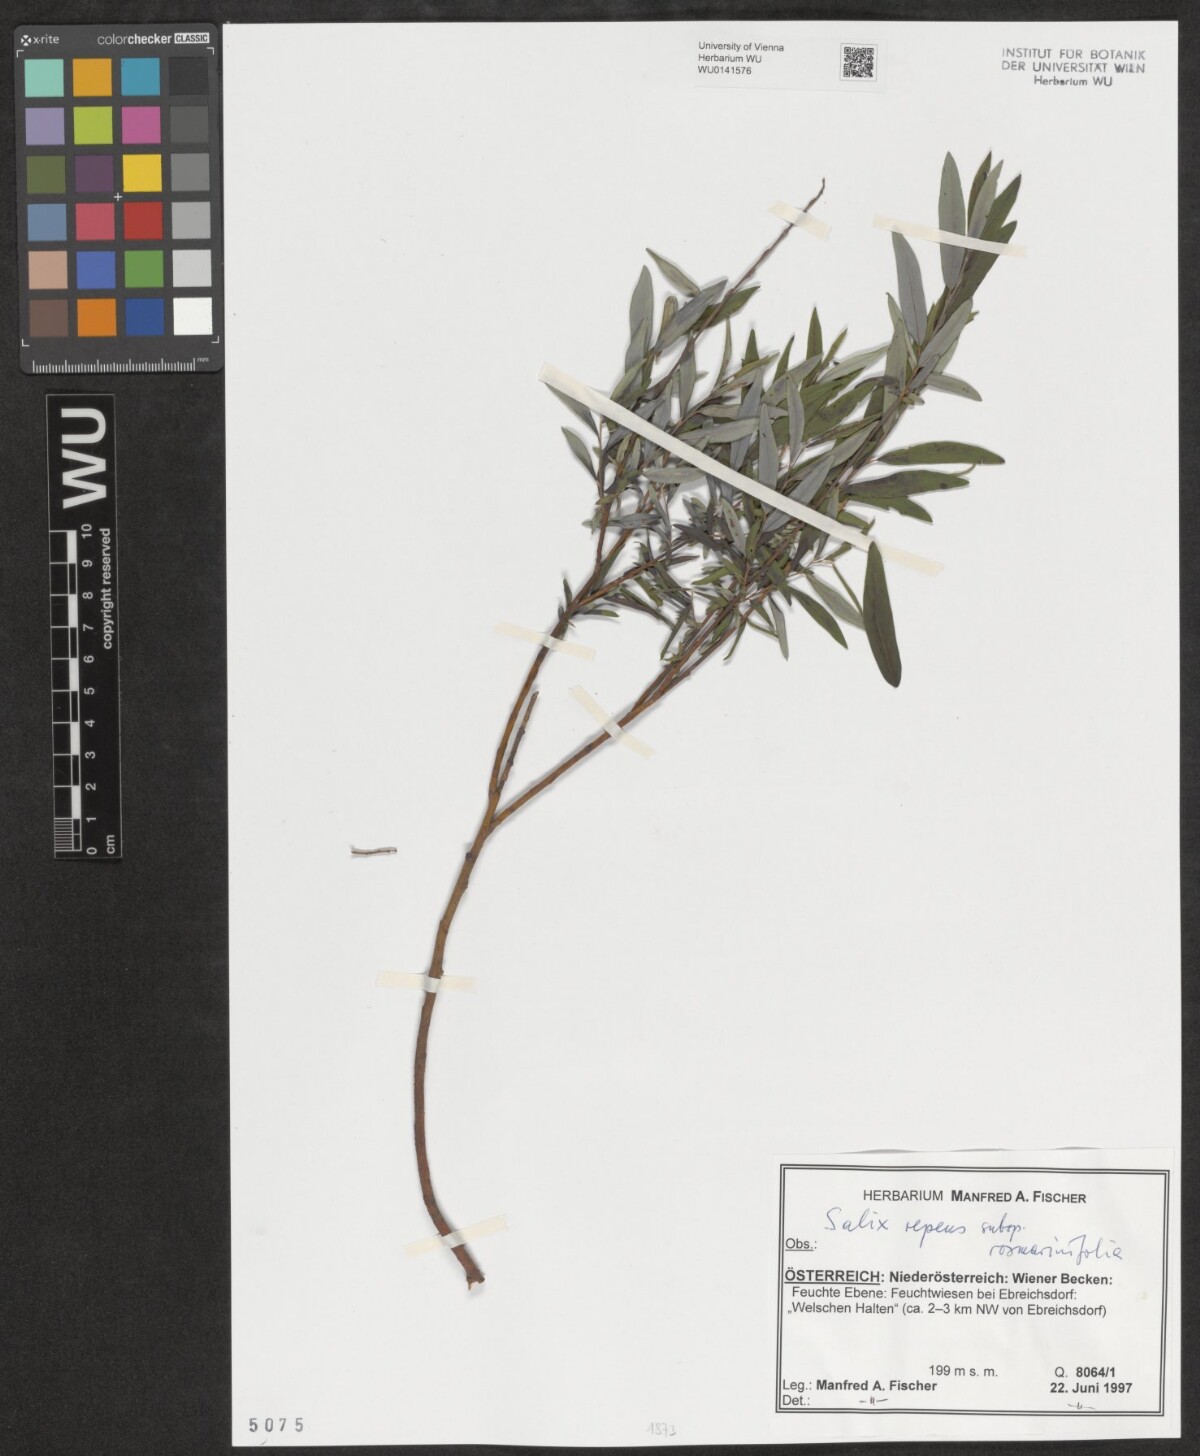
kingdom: Plantae
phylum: Tracheophyta
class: Magnoliopsida
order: Malpighiales
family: Salicaceae
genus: Salix
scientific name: Salix repens
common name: Creeping willow
